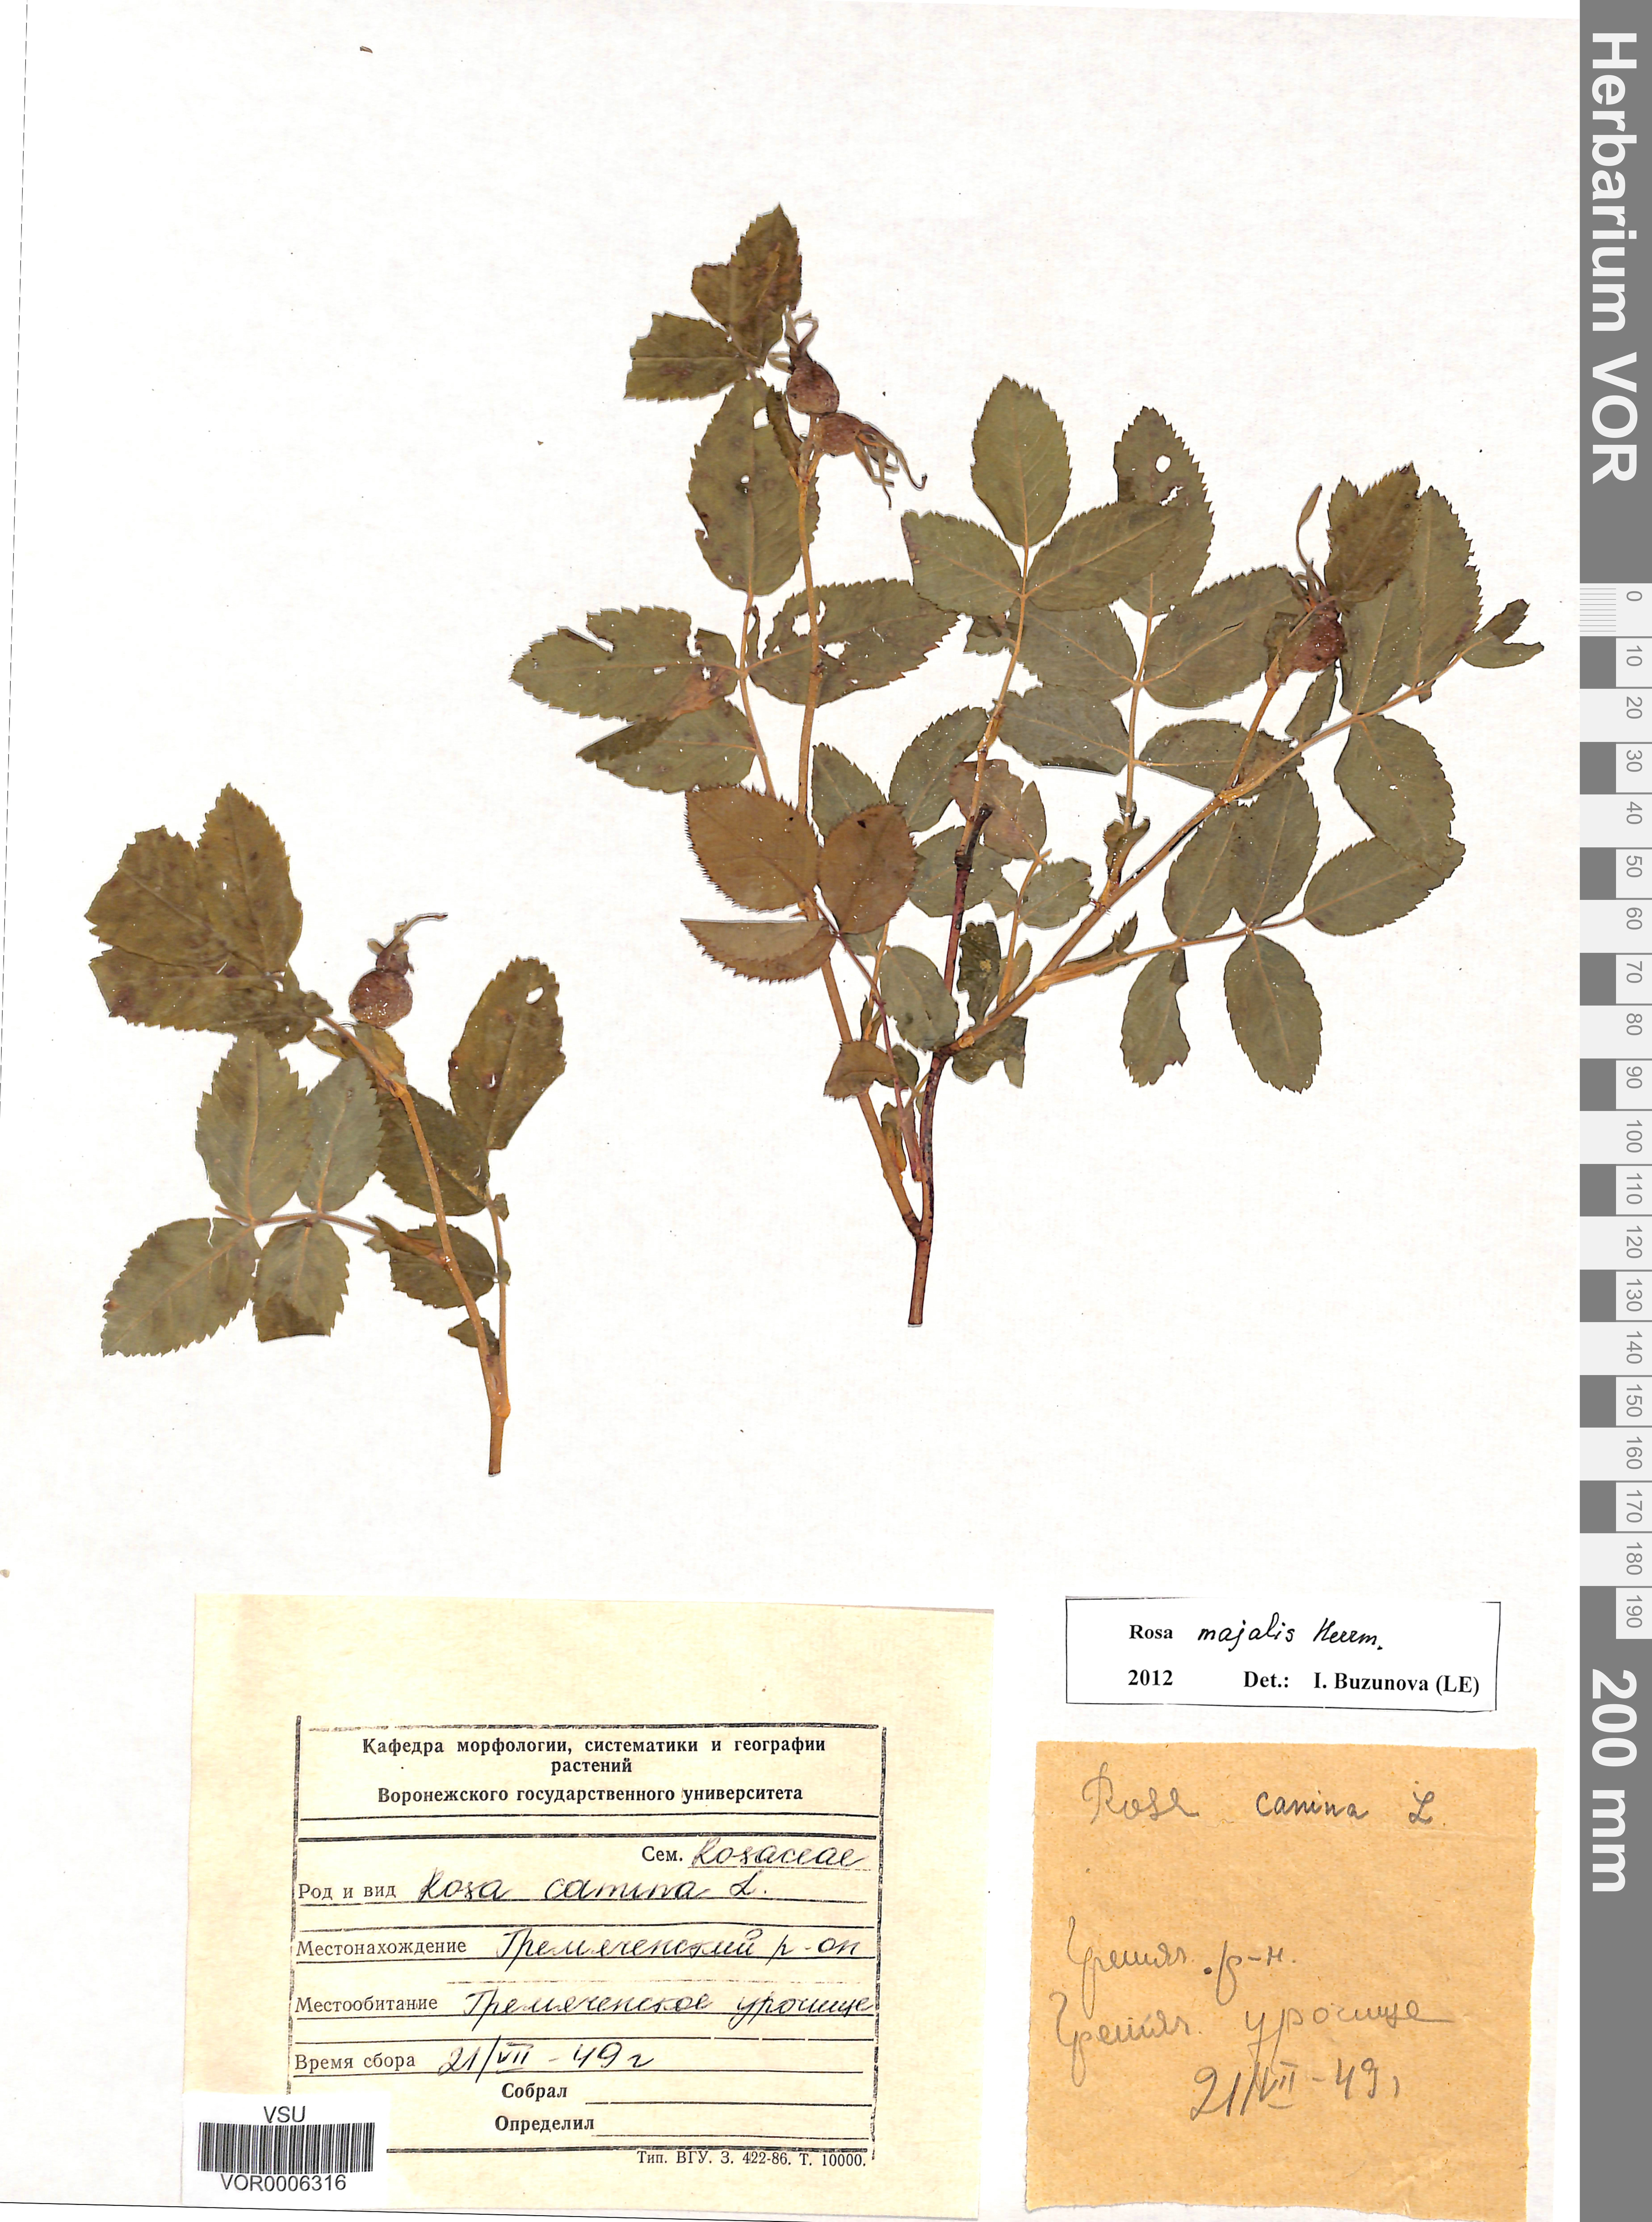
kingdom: Plantae
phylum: Tracheophyta
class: Magnoliopsida
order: Rosales
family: Rosaceae
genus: Rosa
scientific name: Rosa majalis
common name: Cinnamon rose
